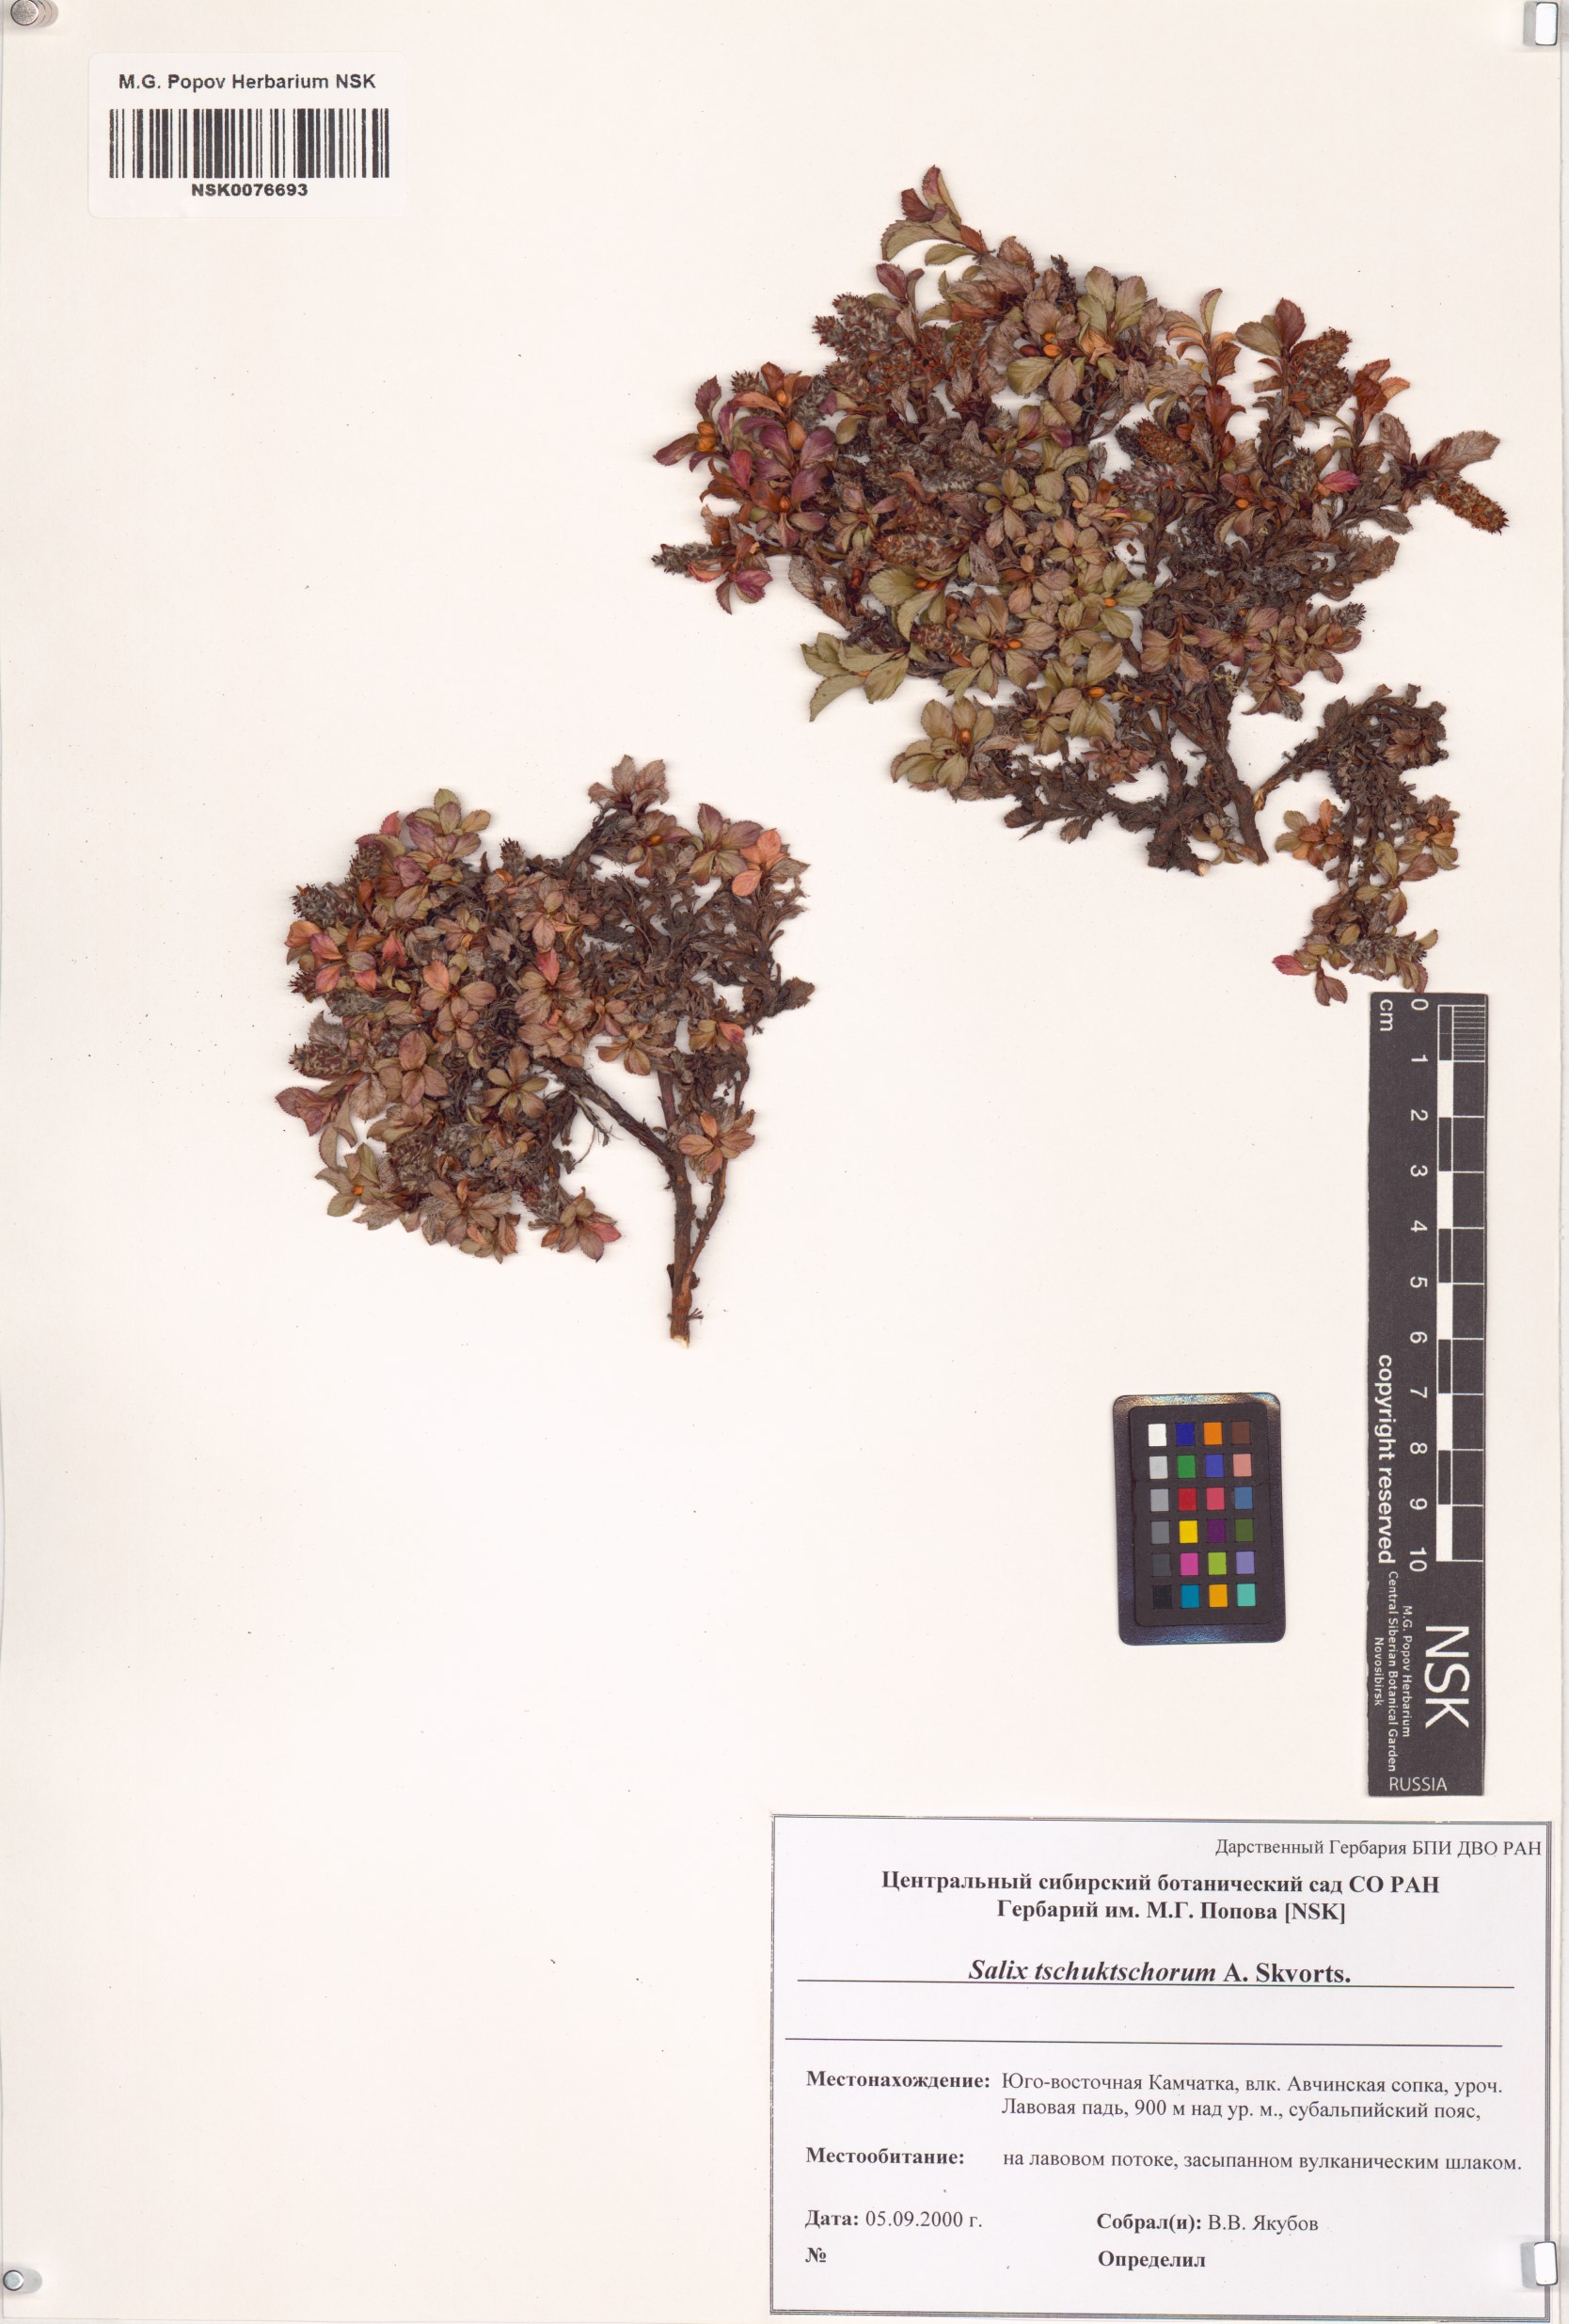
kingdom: Plantae
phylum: Tracheophyta
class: Magnoliopsida
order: Malpighiales
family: Salicaceae
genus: Salix
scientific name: Salix tschuktschorum
